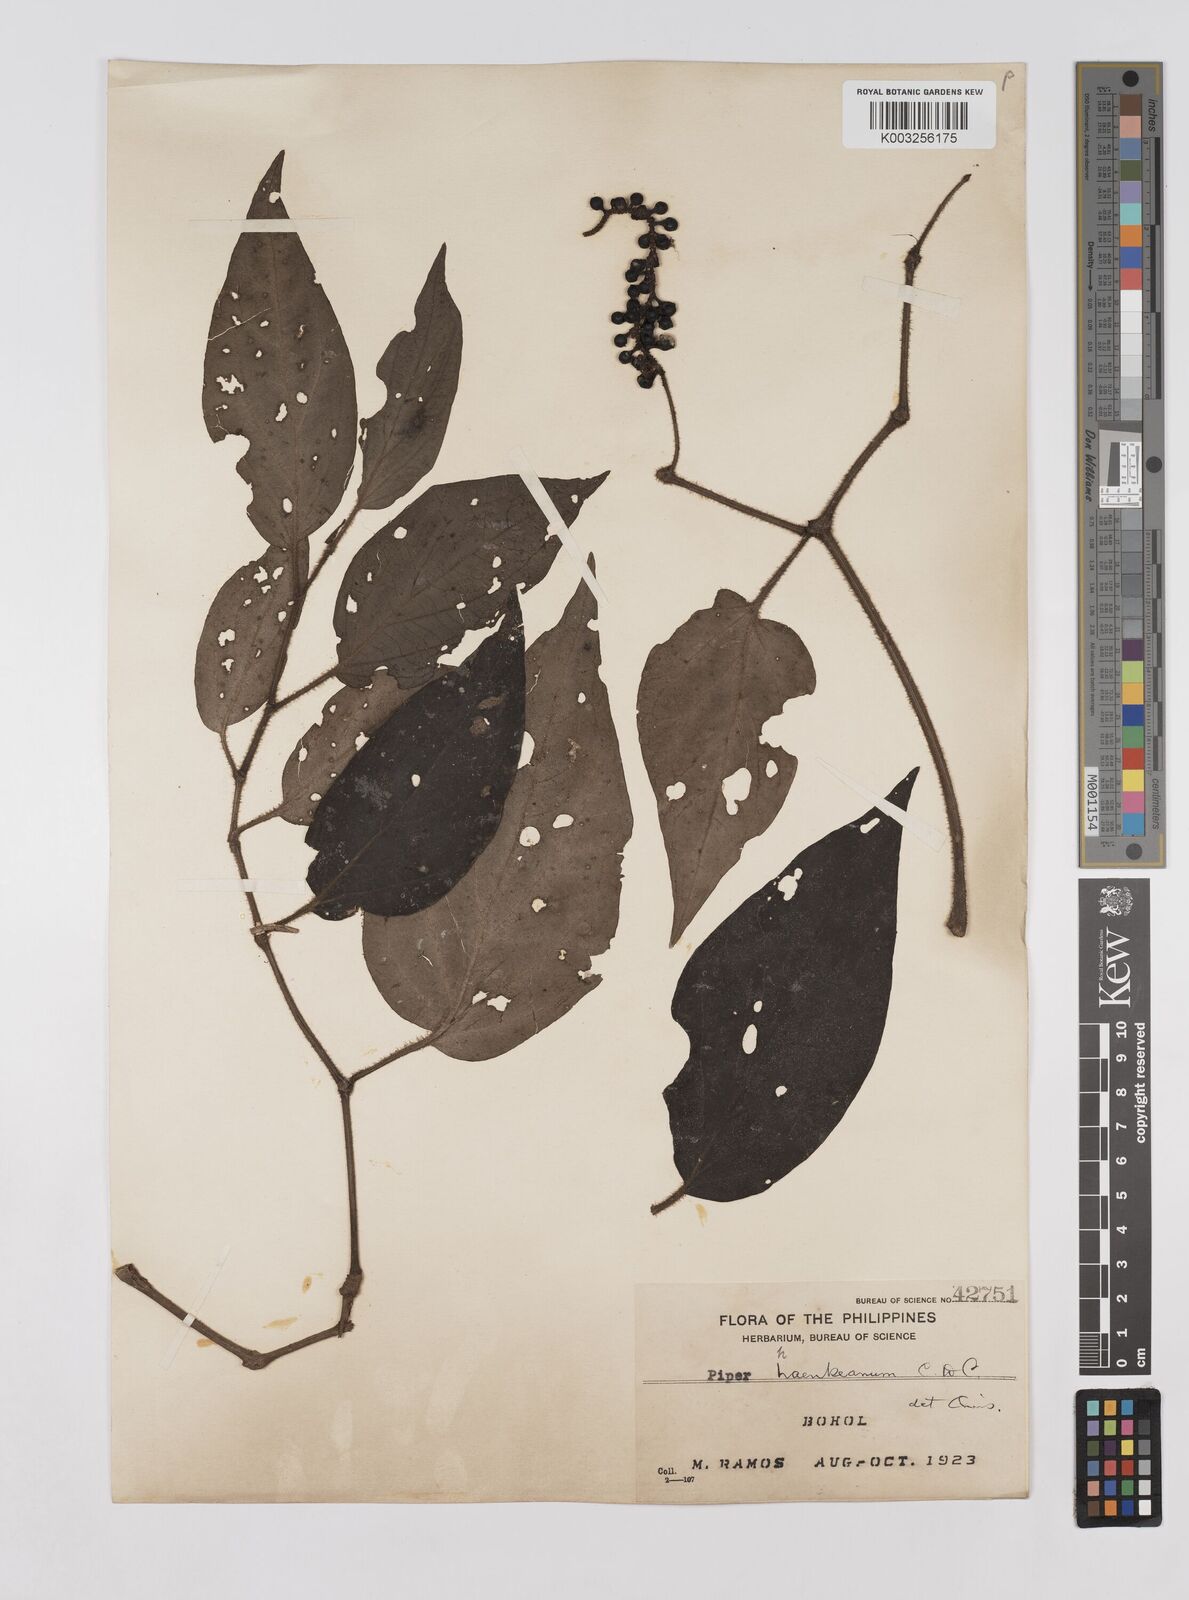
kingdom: Plantae
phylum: Tracheophyta
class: Magnoliopsida
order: Piperales
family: Piperaceae
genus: Piper
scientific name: Piper lanatum
